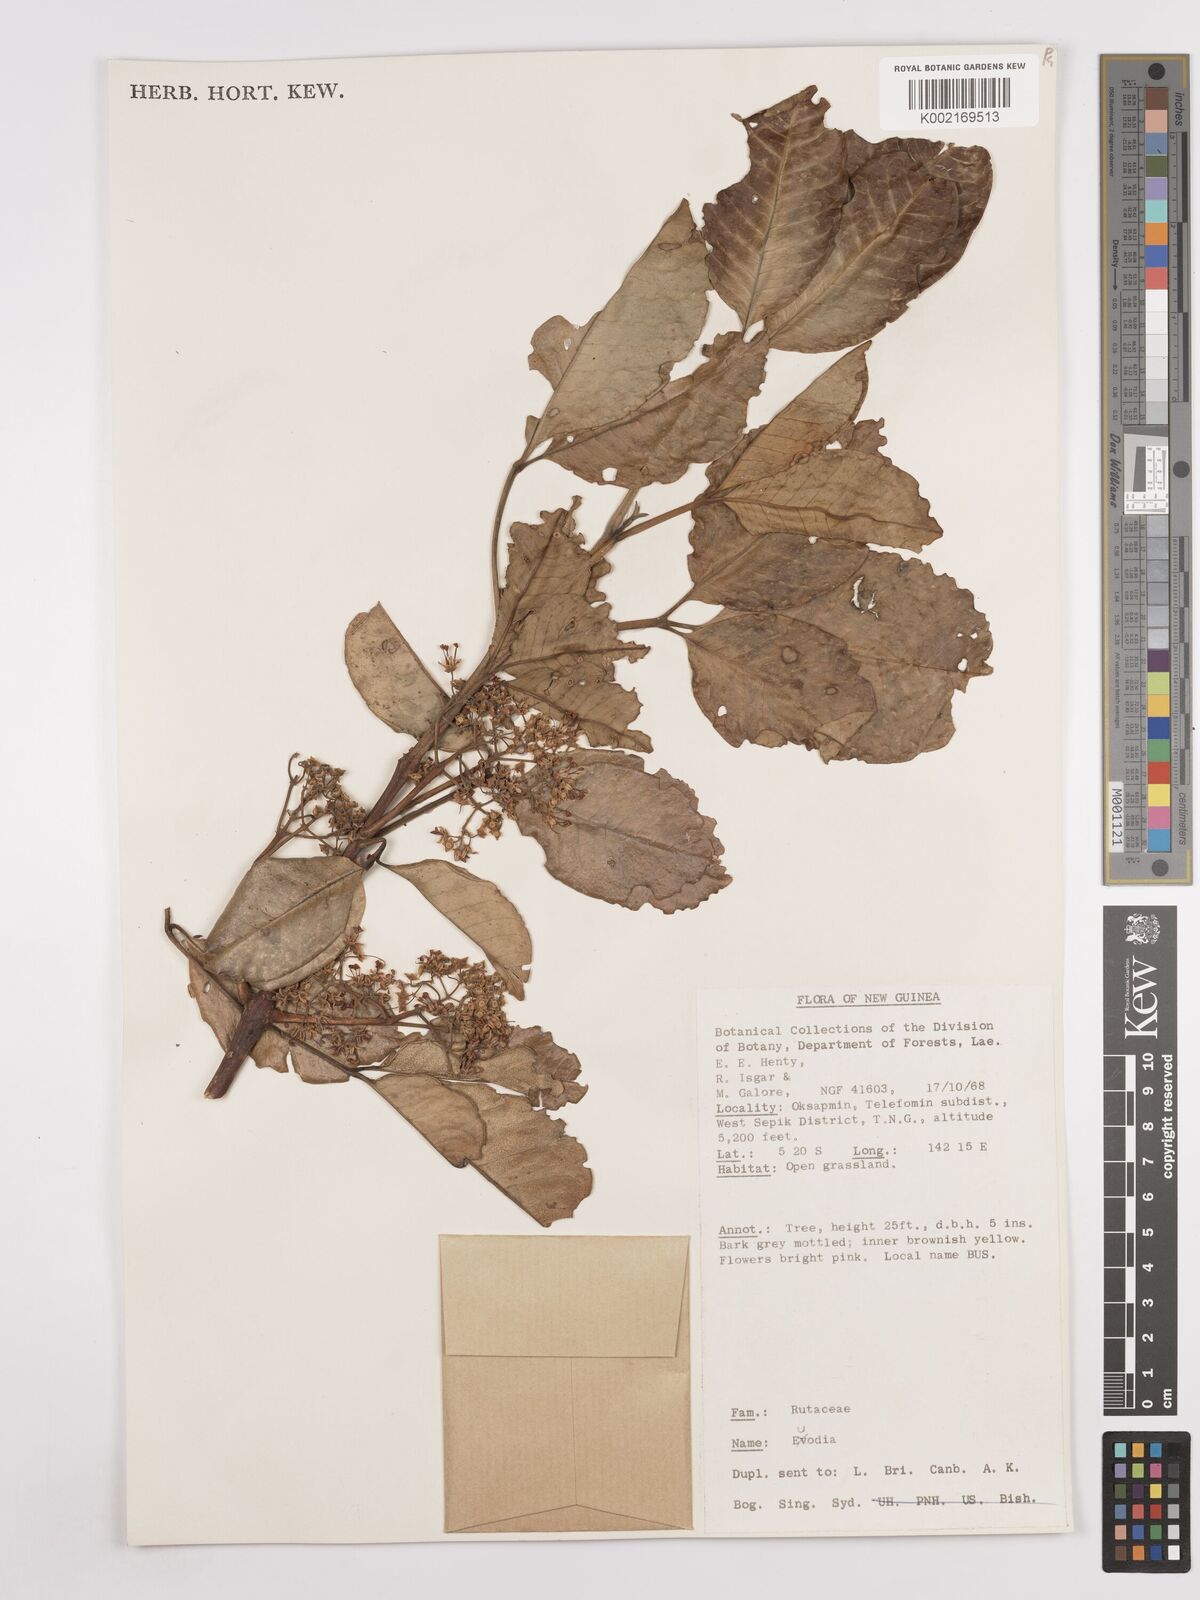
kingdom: Plantae
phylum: Tracheophyta
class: Magnoliopsida
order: Sapindales
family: Rutaceae
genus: Euodia
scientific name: Euodia
